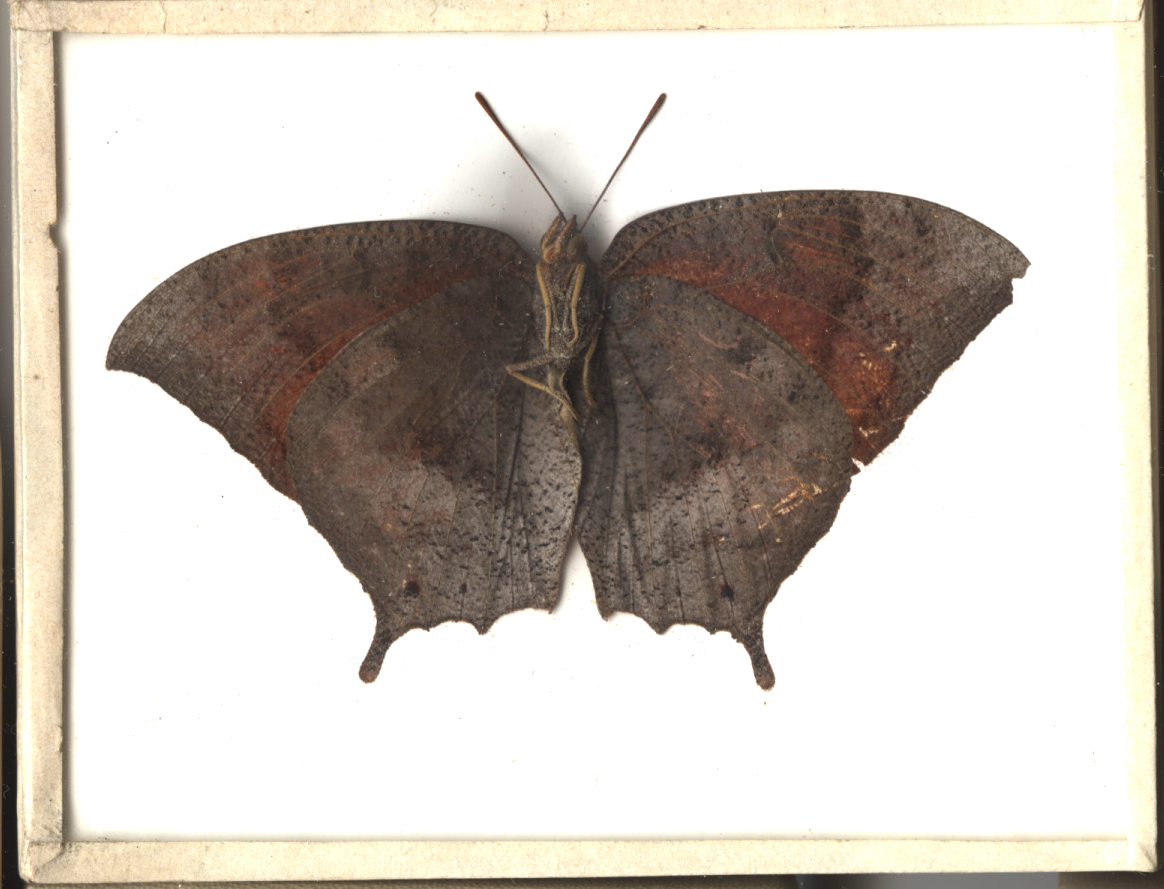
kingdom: Animalia
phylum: Arthropoda
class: Insecta
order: Lepidoptera
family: Nymphalidae
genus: Anaea
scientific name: Anaea aidea
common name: Florida Leafwing
